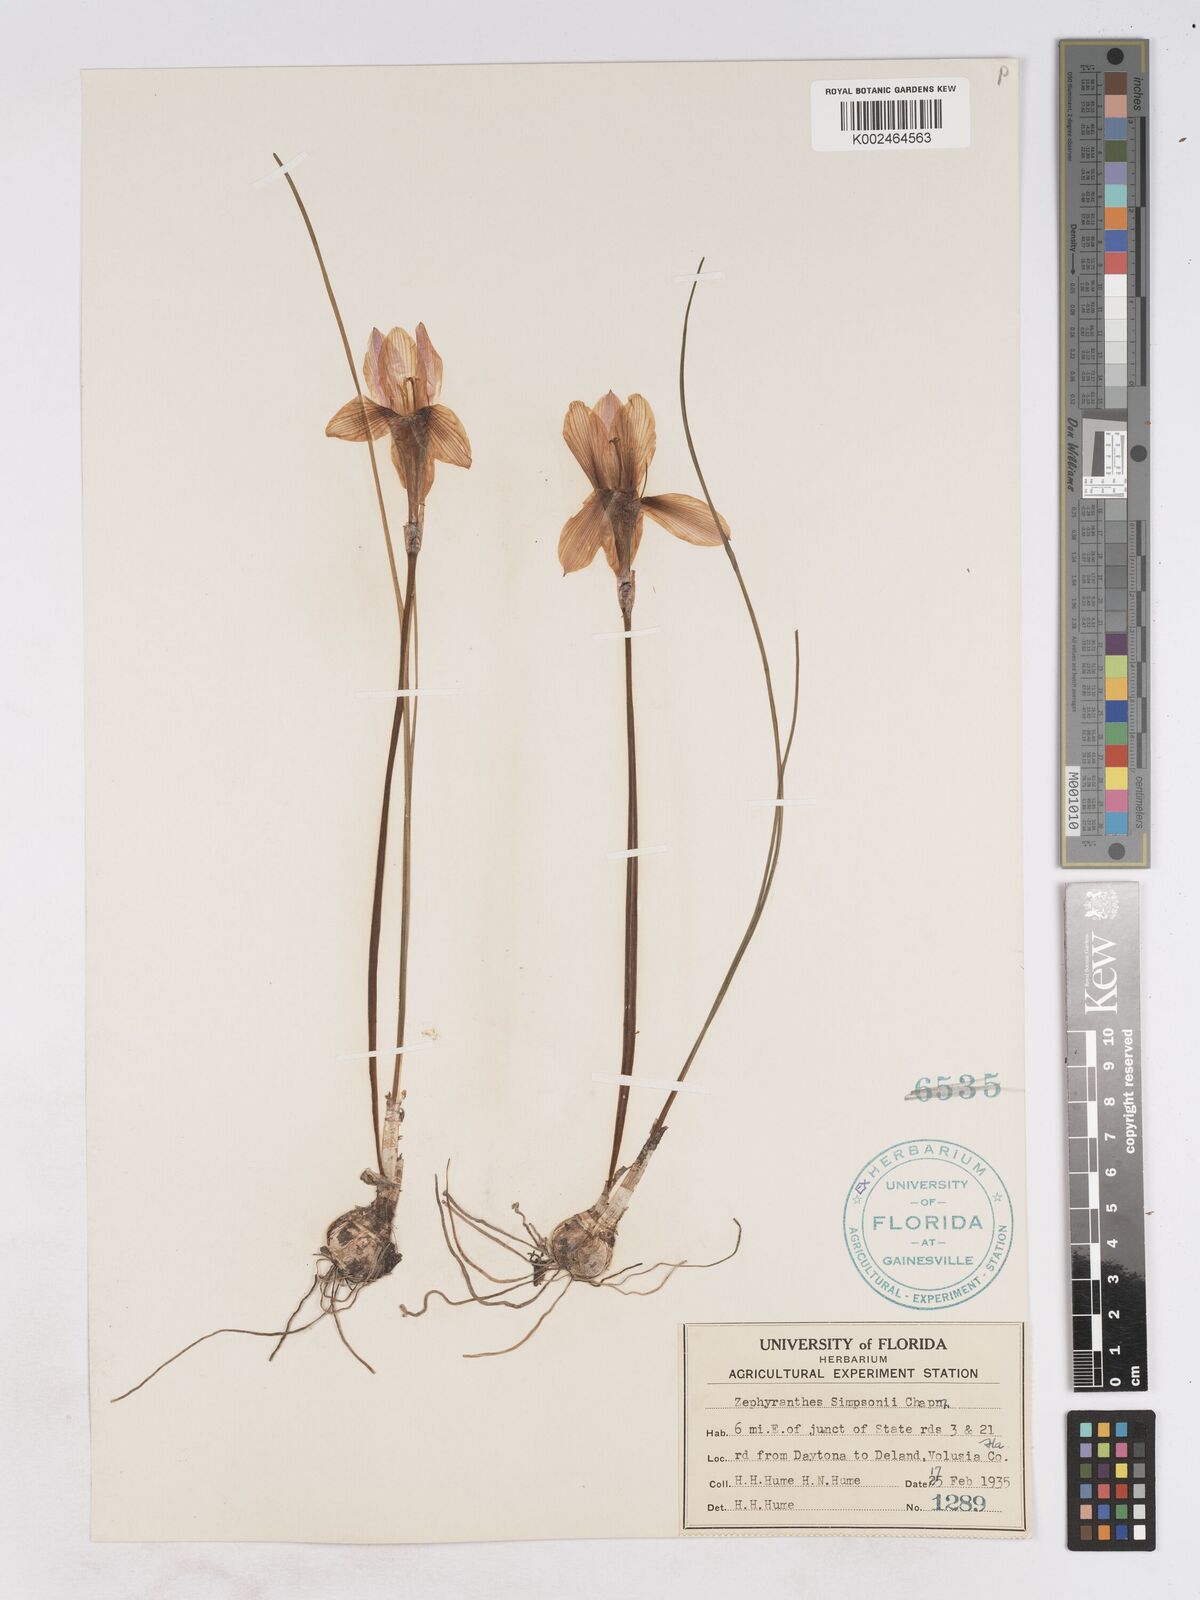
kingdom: Plantae
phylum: Tracheophyta
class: Liliopsida
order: Asparagales
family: Amaryllidaceae
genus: Zephyranthes
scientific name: Zephyranthes simpsonii
